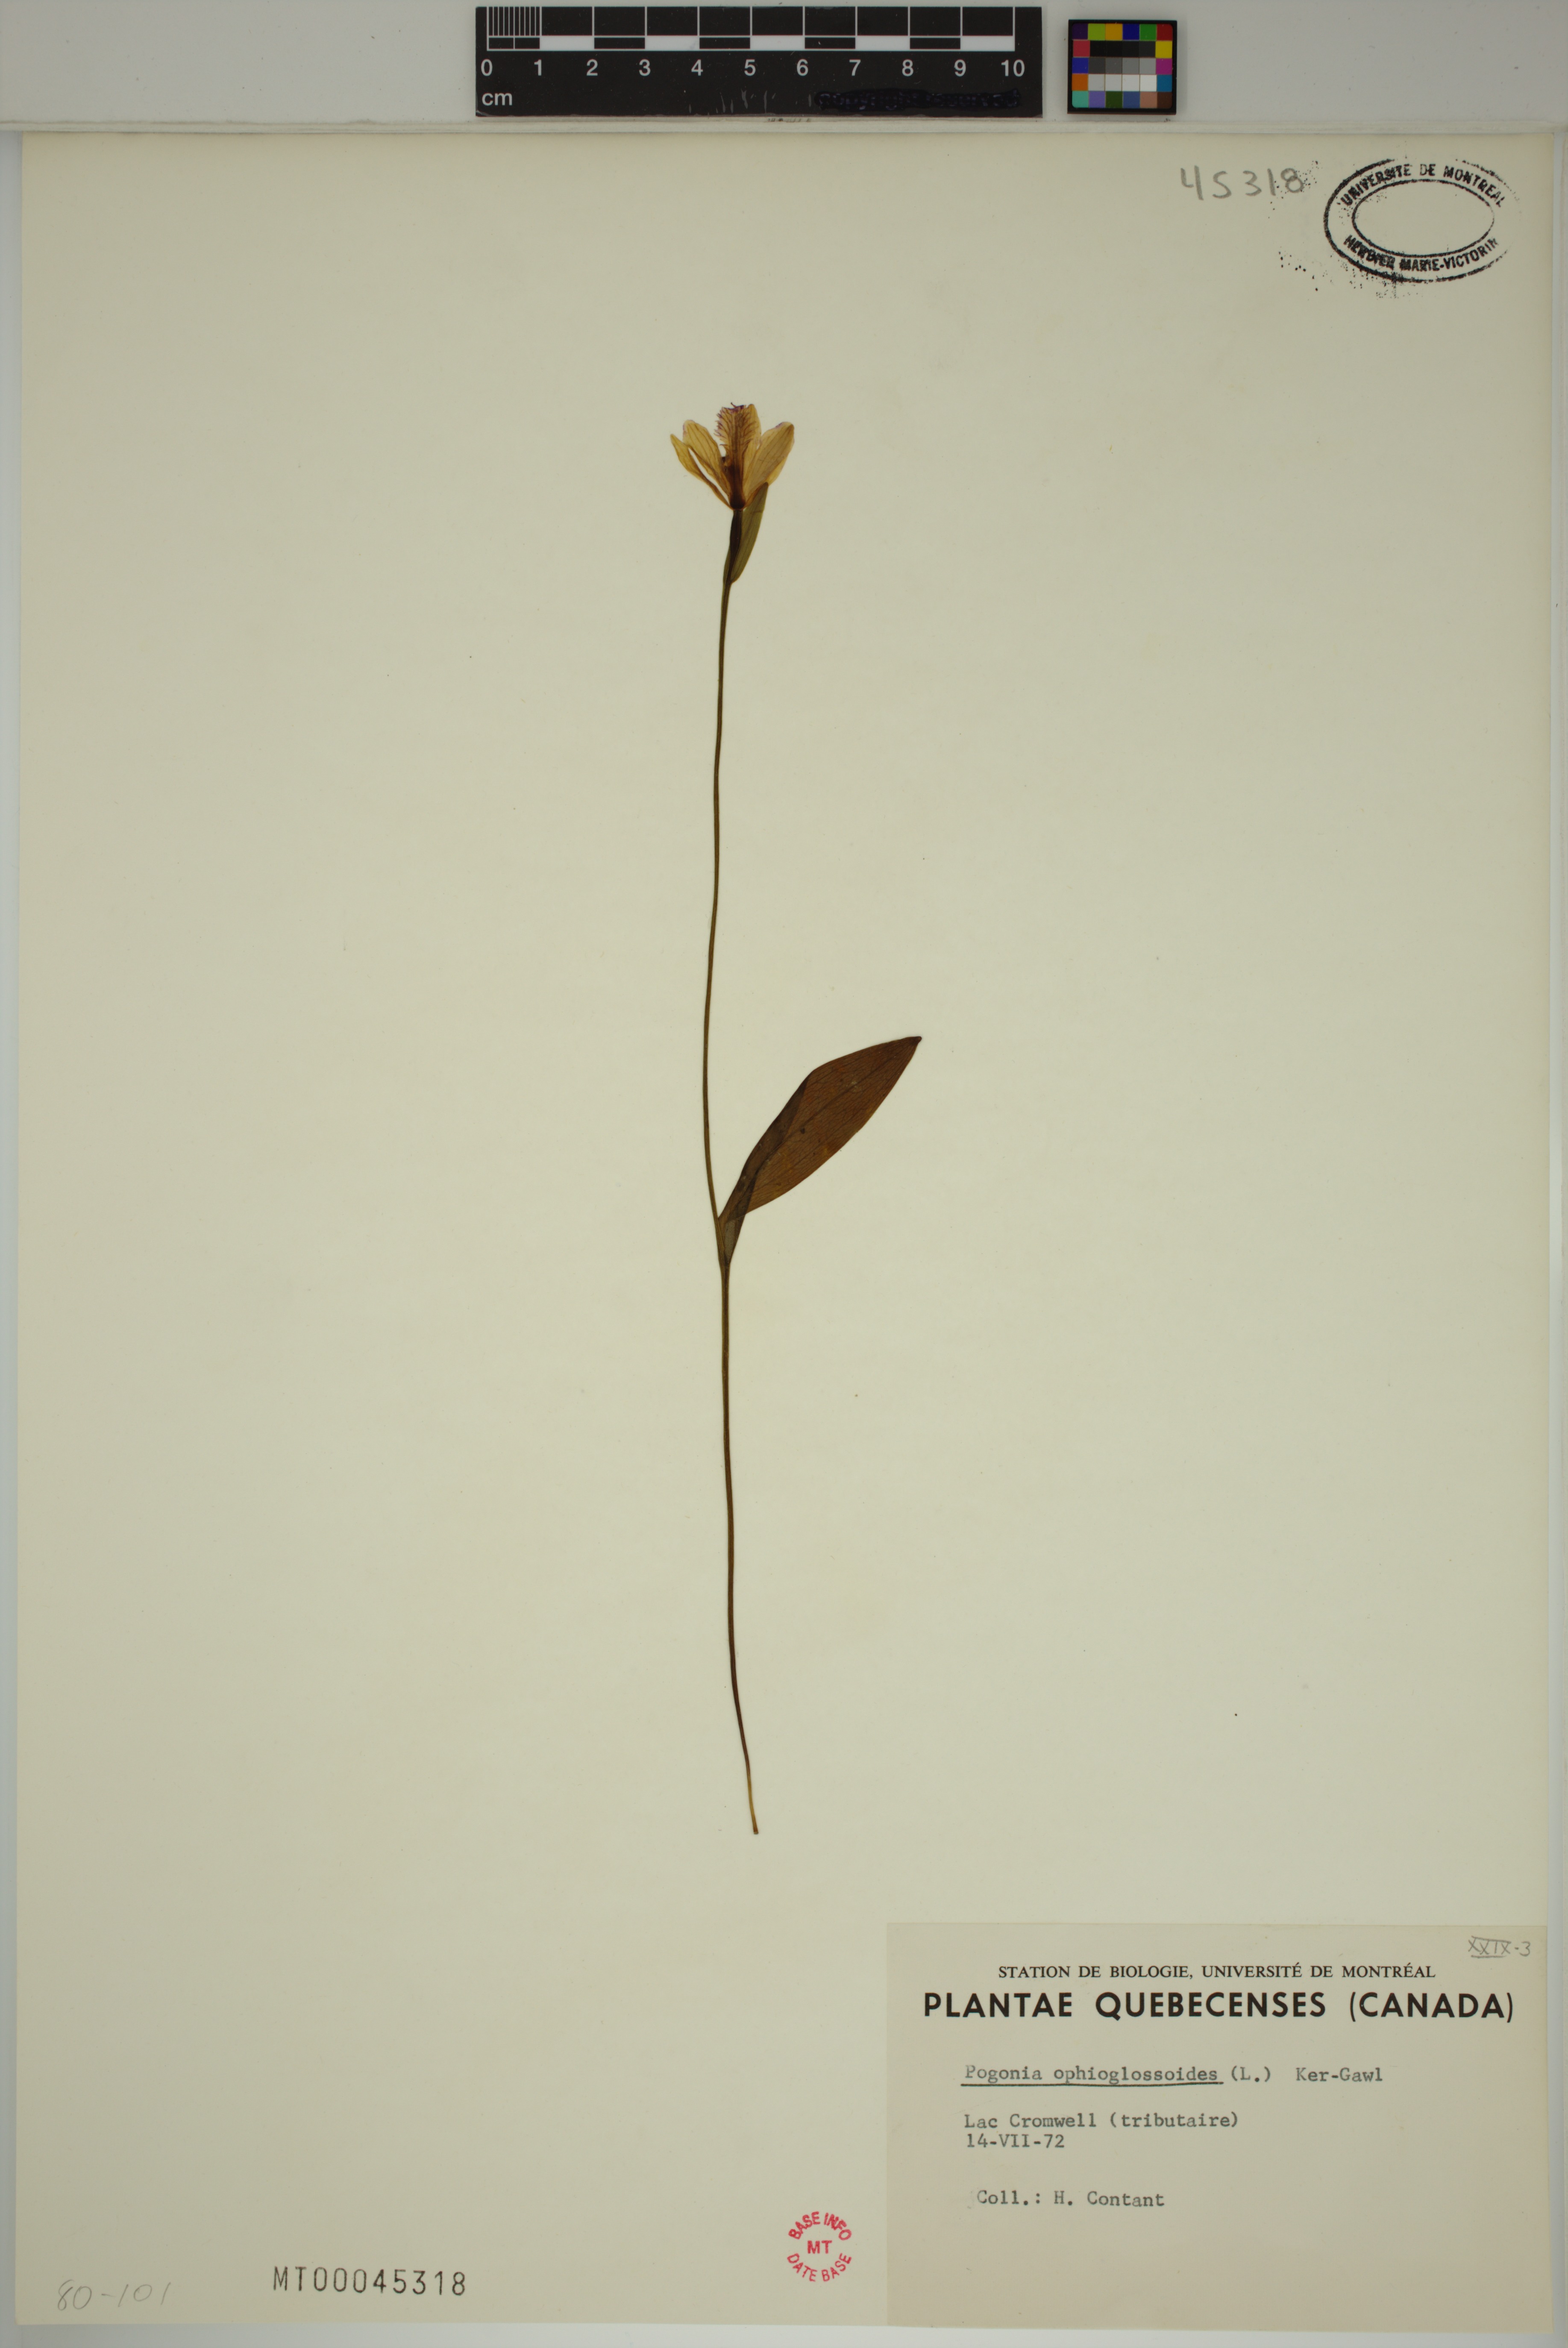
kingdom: Plantae
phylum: Tracheophyta
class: Liliopsida
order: Asparagales
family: Orchidaceae
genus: Pogonia
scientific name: Pogonia ophioglossoides
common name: Rose pogonia
